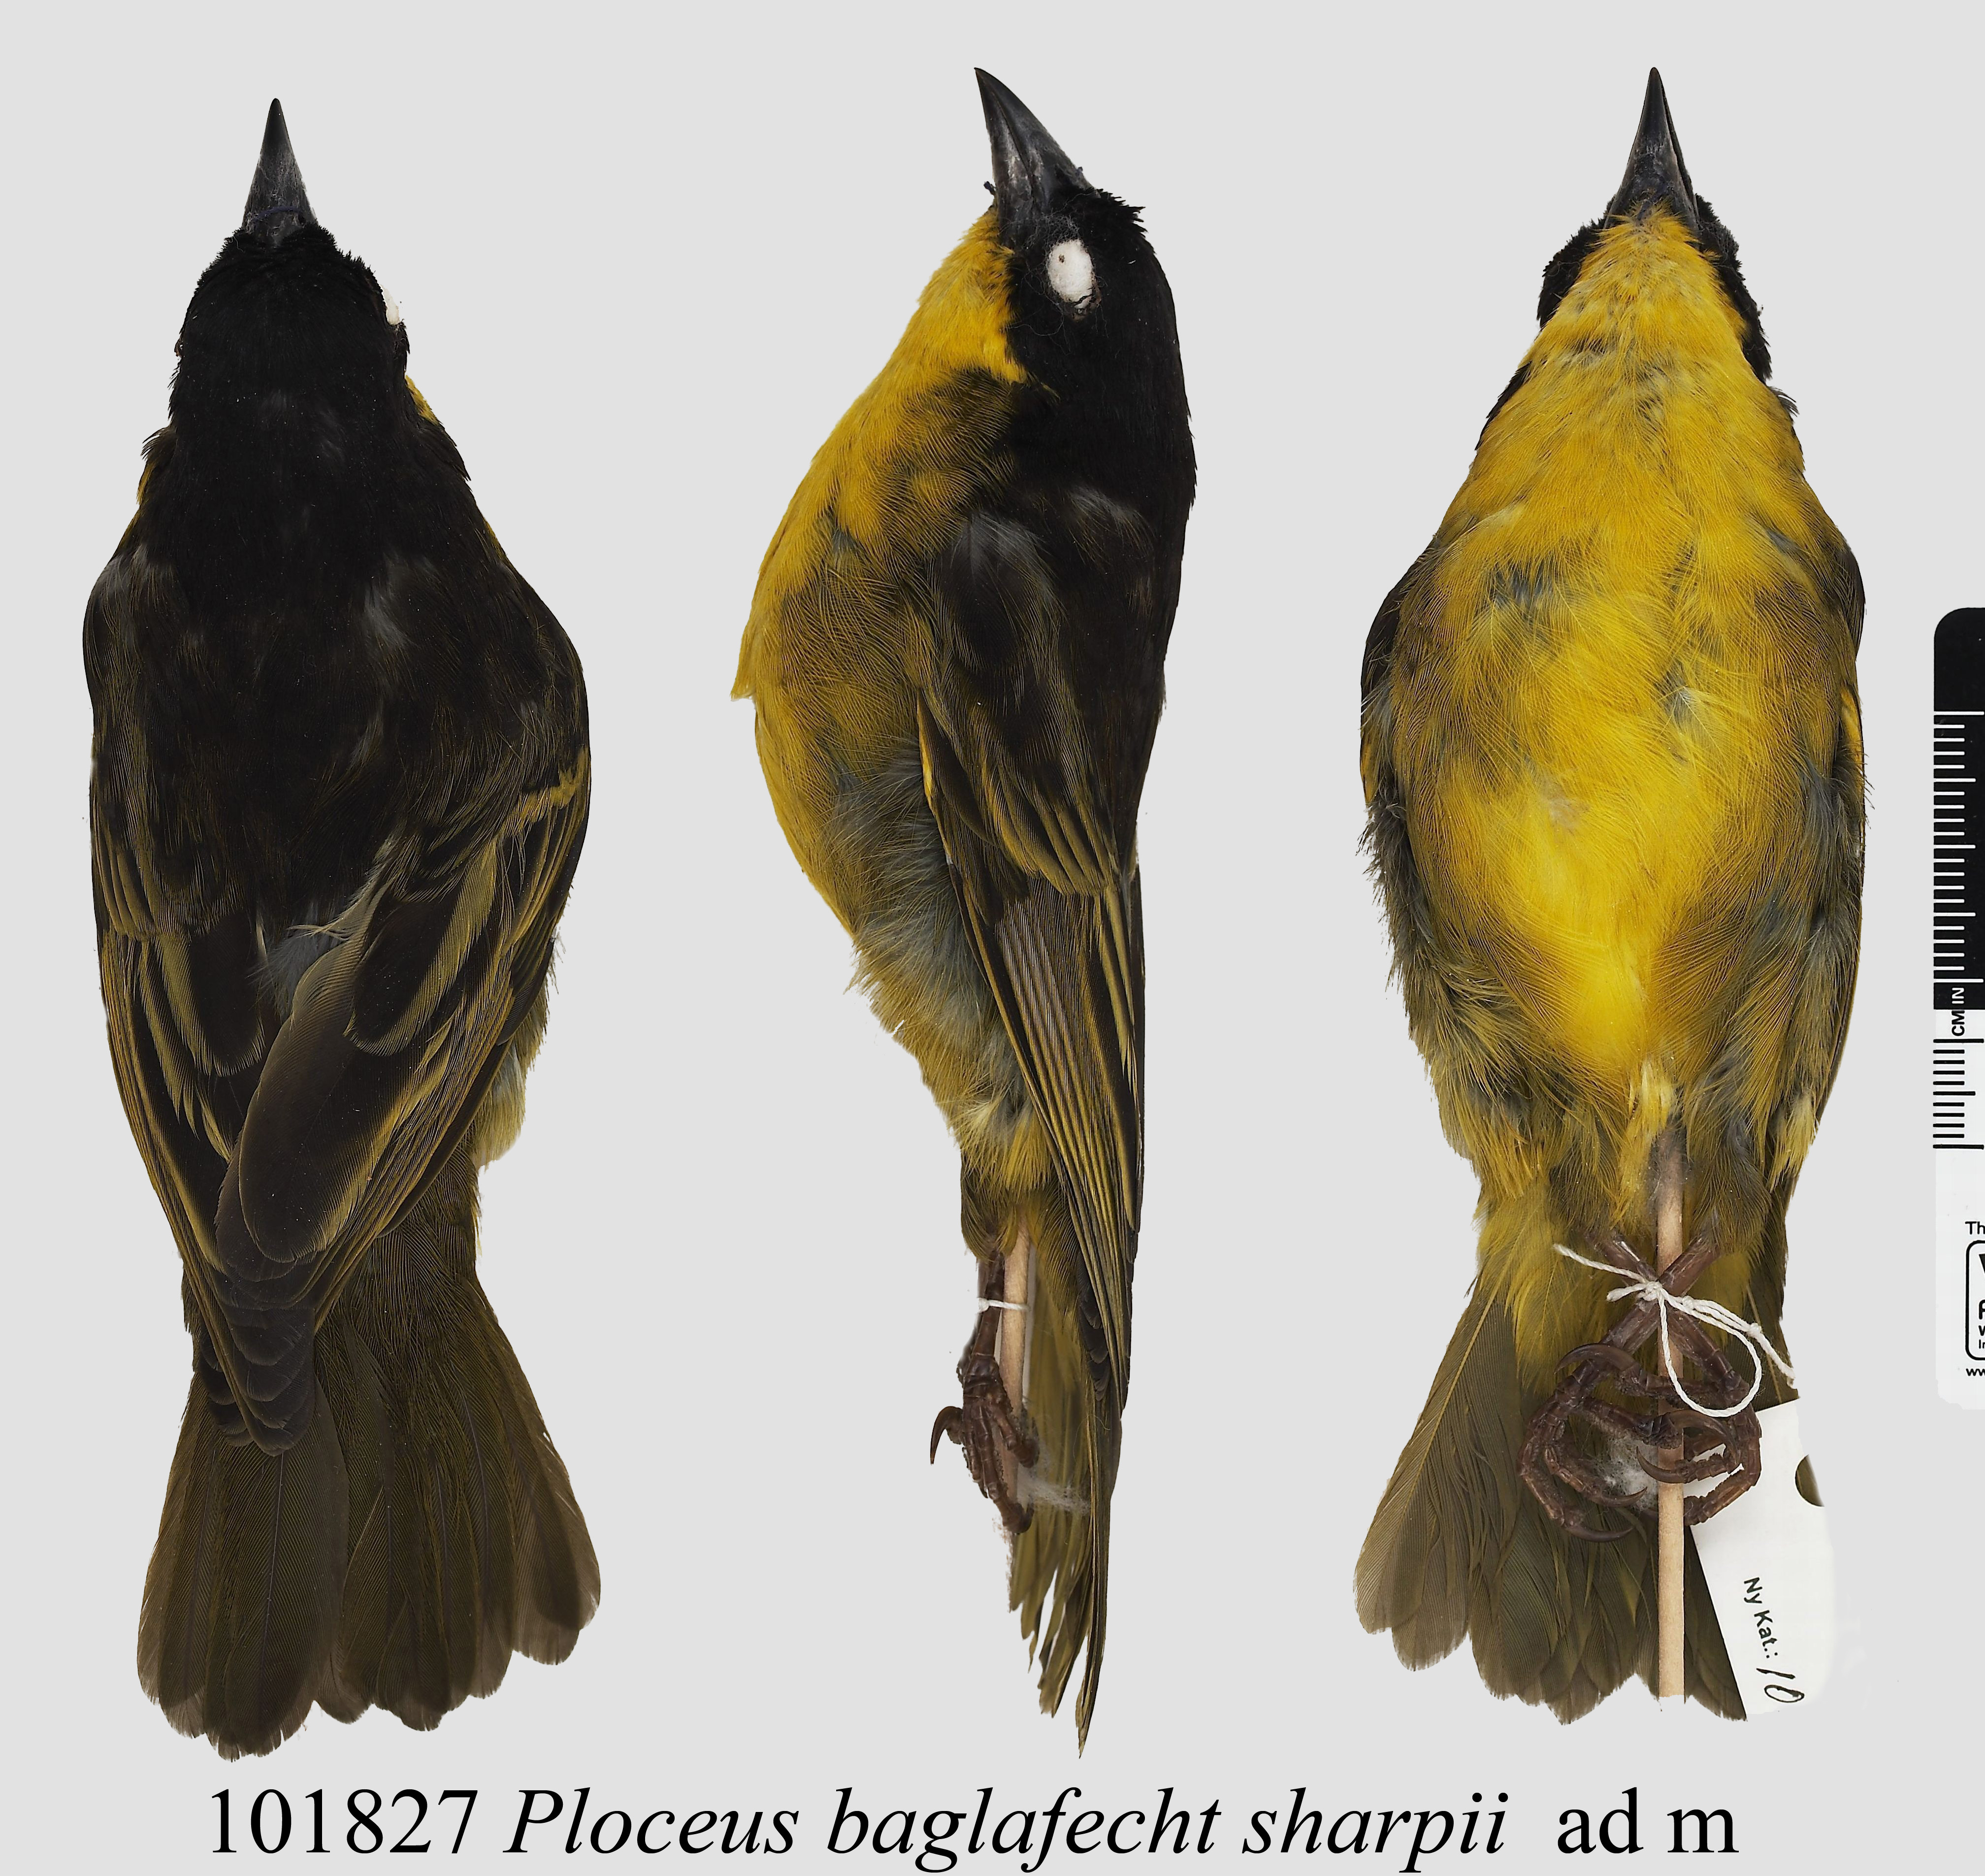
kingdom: Animalia
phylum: Chordata
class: Aves
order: Passeriformes
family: Ploceidae
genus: Ploceus
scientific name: Ploceus baglafecht
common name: Baglafecht weaver
